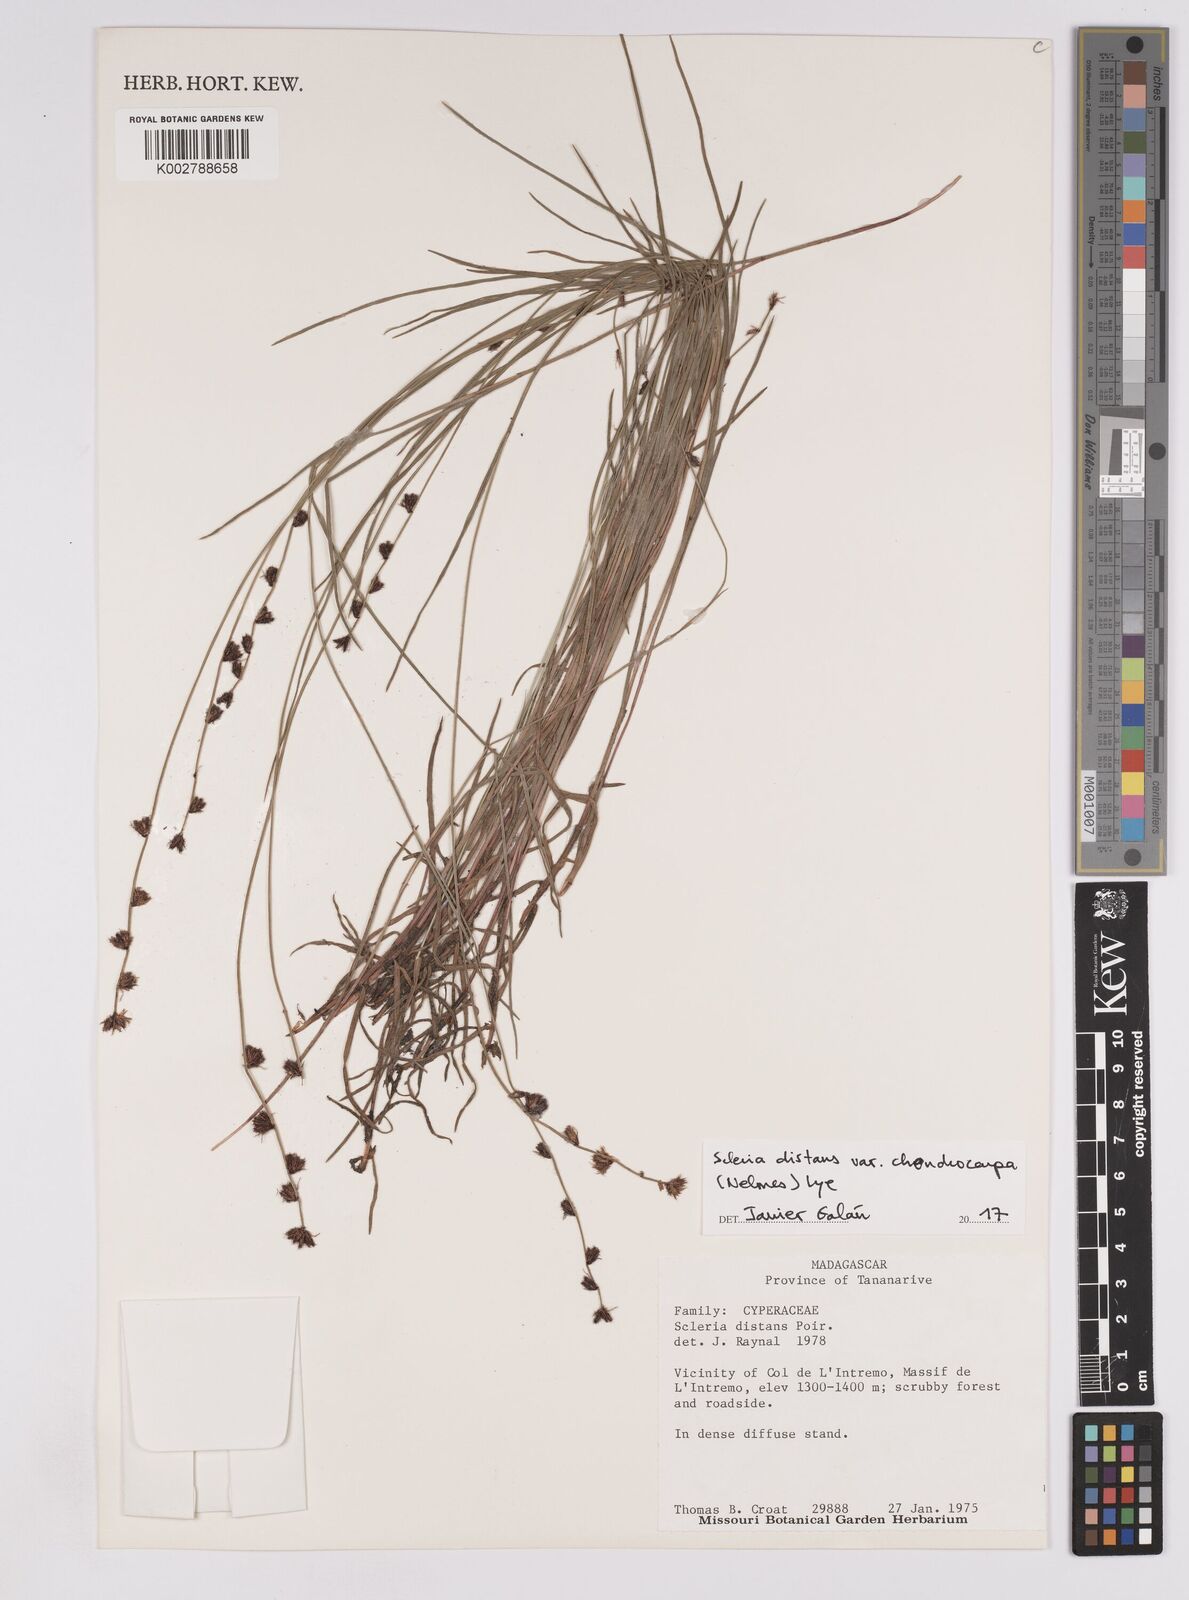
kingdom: Plantae
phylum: Tracheophyta
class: Liliopsida
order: Poales
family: Cyperaceae
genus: Scleria
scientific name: Scleria distans
